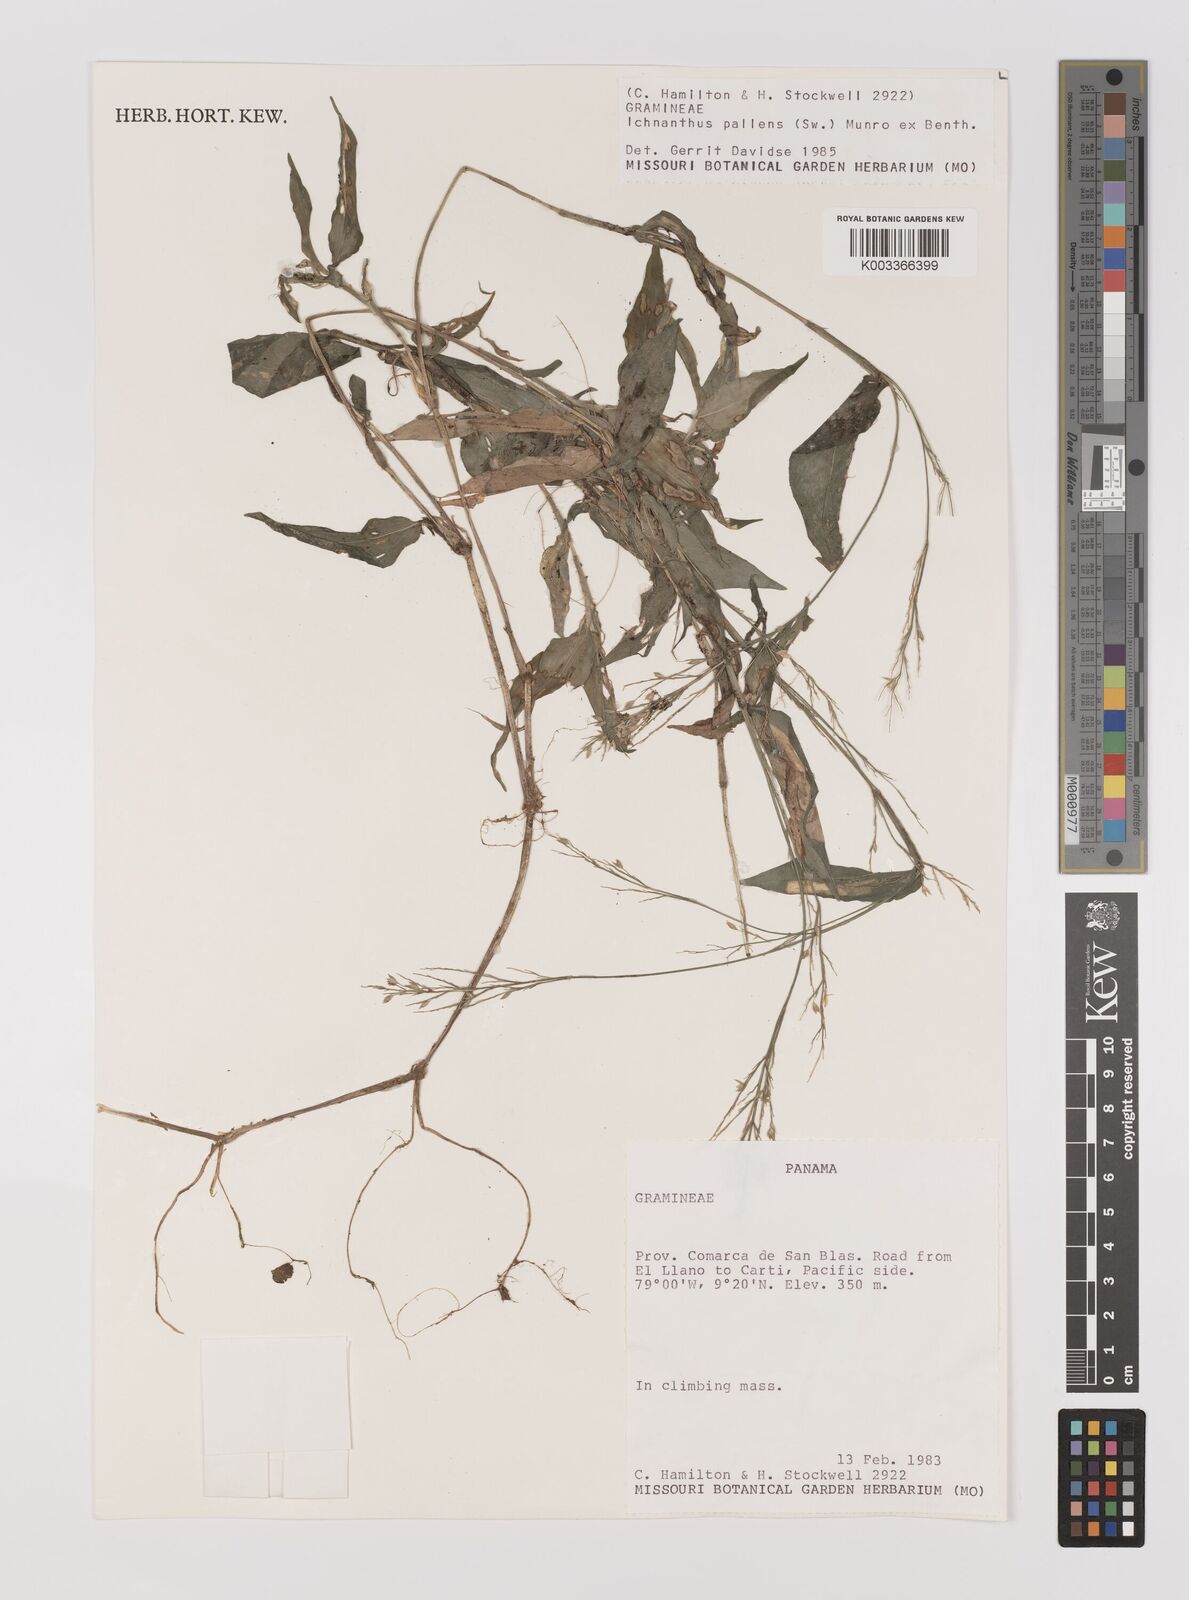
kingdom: Plantae
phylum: Tracheophyta
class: Liliopsida
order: Poales
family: Poaceae
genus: Ichnanthus
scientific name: Ichnanthus pallens
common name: Water grass
